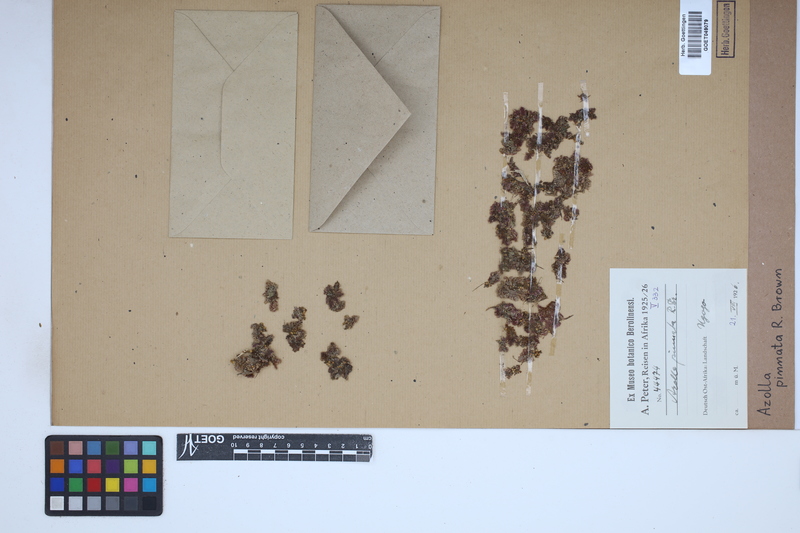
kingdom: Plantae
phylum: Tracheophyta
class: Polypodiopsida
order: Salviniales
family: Salviniaceae
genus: Azolla
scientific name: Azolla pinnata
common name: Ferny azolla
